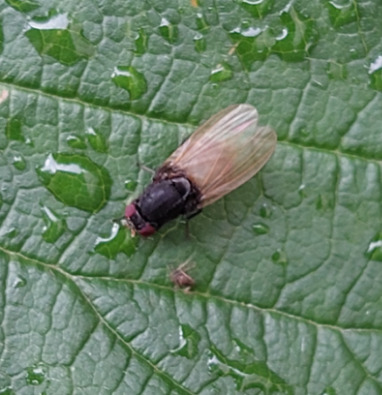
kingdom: Animalia
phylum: Arthropoda
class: Insecta
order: Diptera
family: Lauxaniidae
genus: Minettia
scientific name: Minettia longipennis
